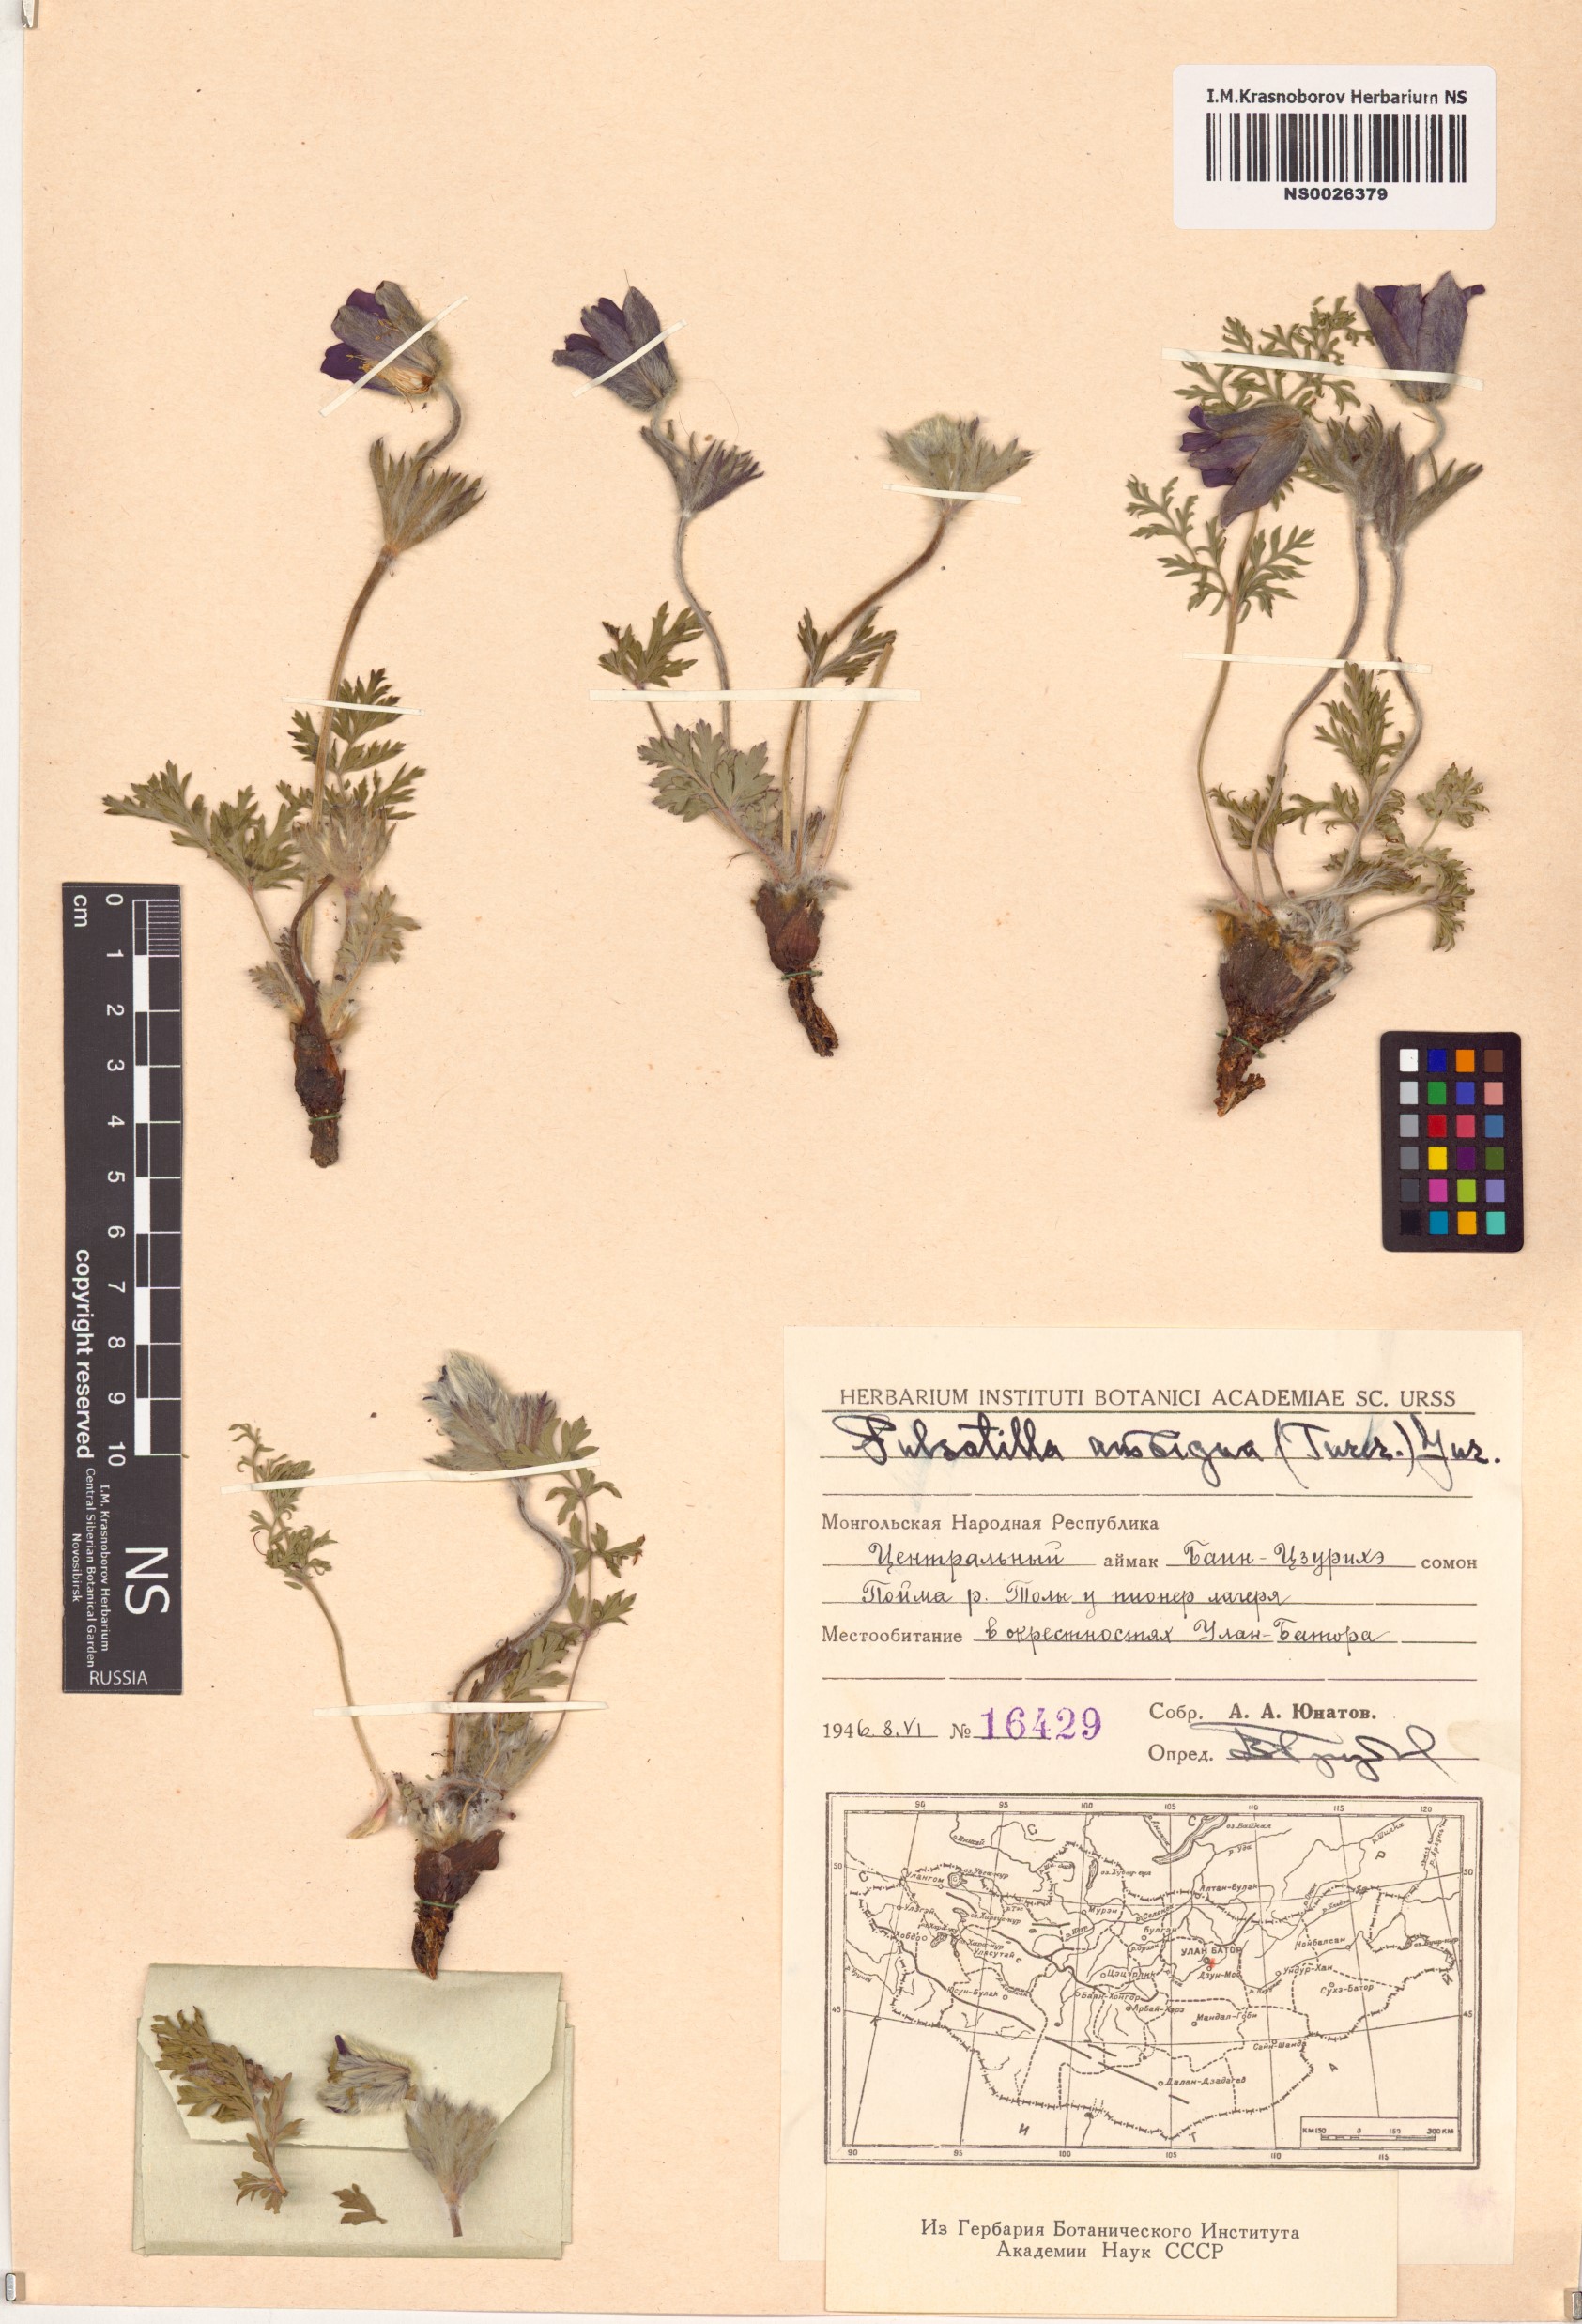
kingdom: Plantae
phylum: Tracheophyta
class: Magnoliopsida
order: Ranunculales
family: Ranunculaceae
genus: Pulsatilla
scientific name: Pulsatilla ambigua
